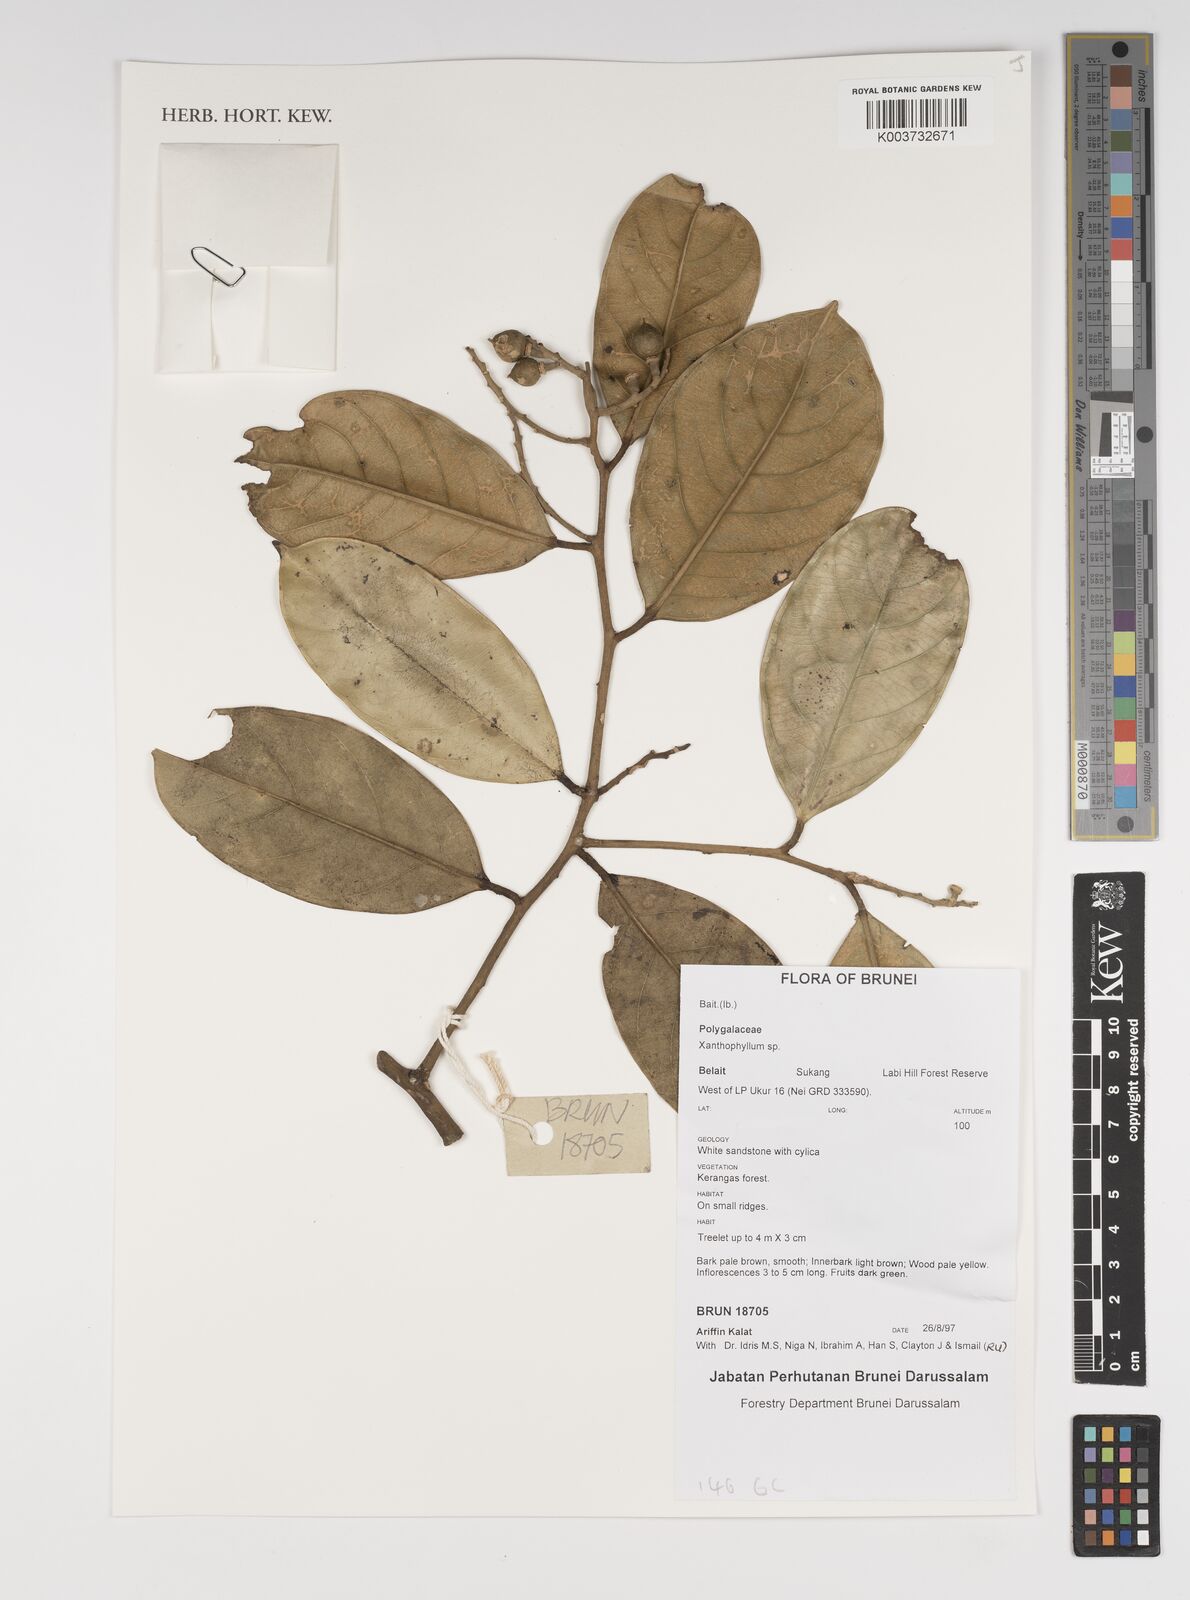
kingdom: Plantae
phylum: Tracheophyta
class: Magnoliopsida
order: Fabales
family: Polygalaceae
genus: Xanthophyllum
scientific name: Xanthophyllum
